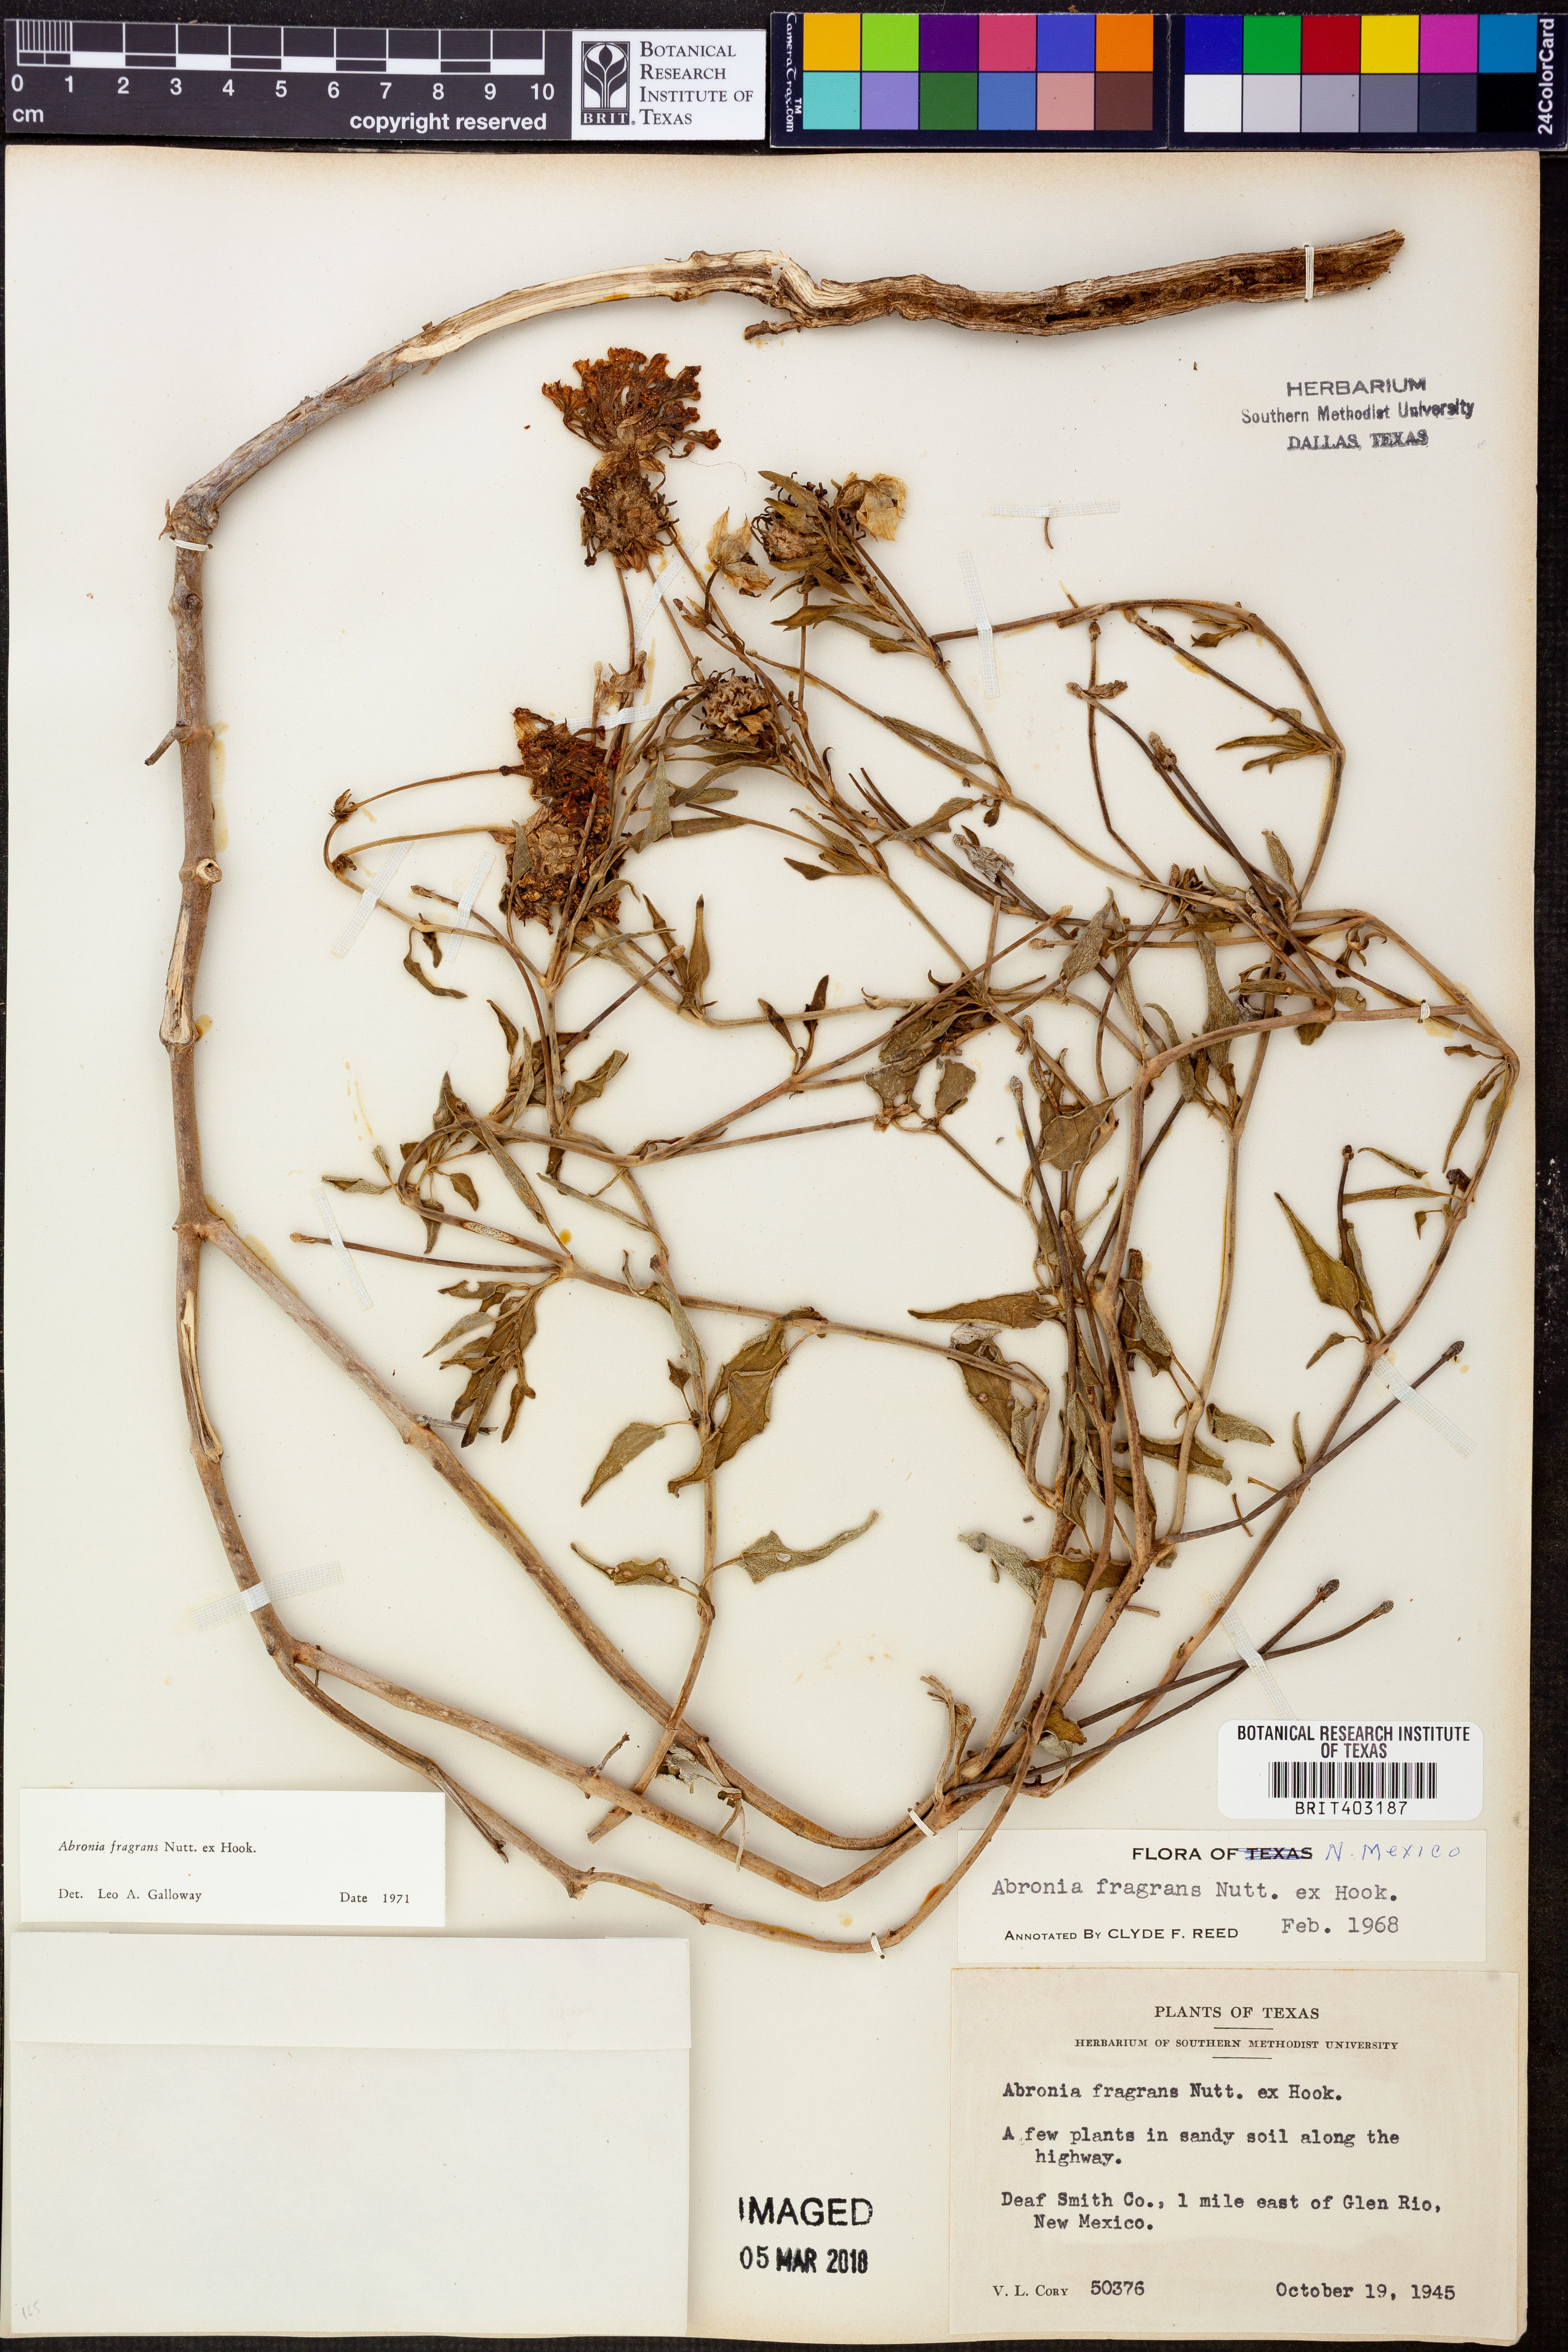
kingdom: Plantae
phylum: Tracheophyta
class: Magnoliopsida
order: Caryophyllales
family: Nyctaginaceae
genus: Abronia
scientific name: Abronia fragrans
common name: Fragrant sand-verbena
